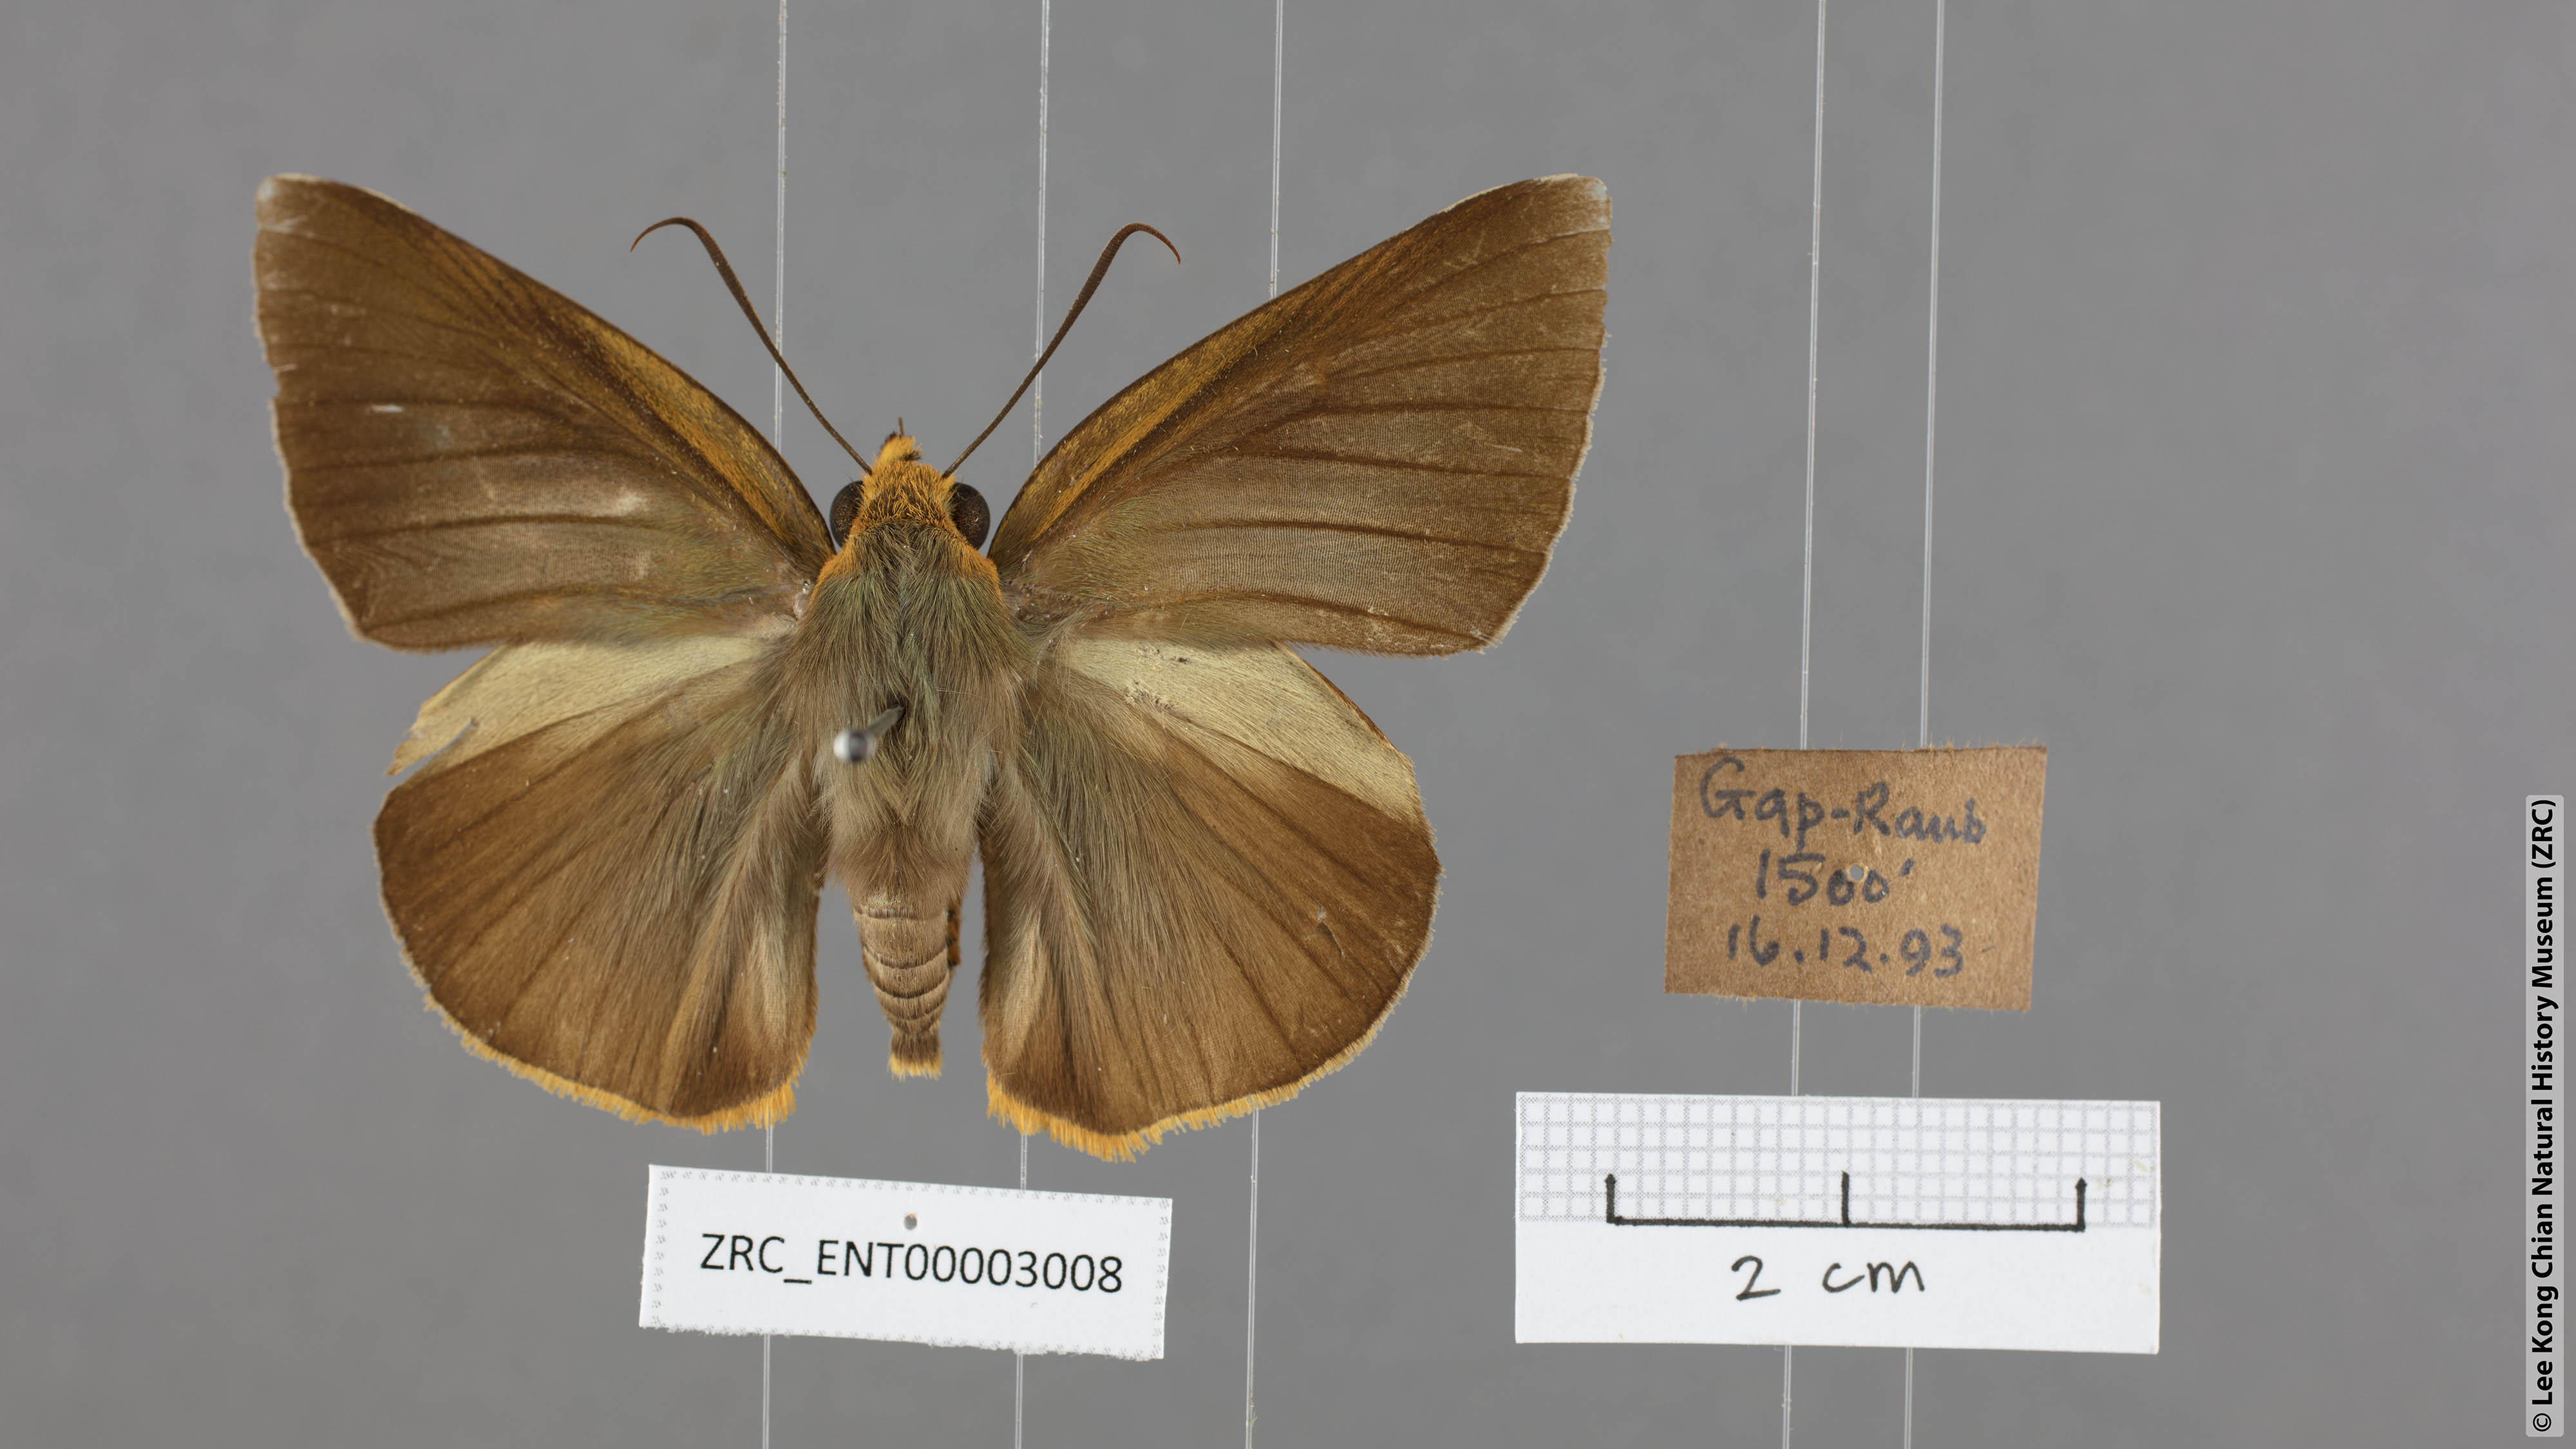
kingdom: Animalia
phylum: Arthropoda
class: Insecta
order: Lepidoptera
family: Hesperiidae
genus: Bibasis
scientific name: Bibasis etelka
